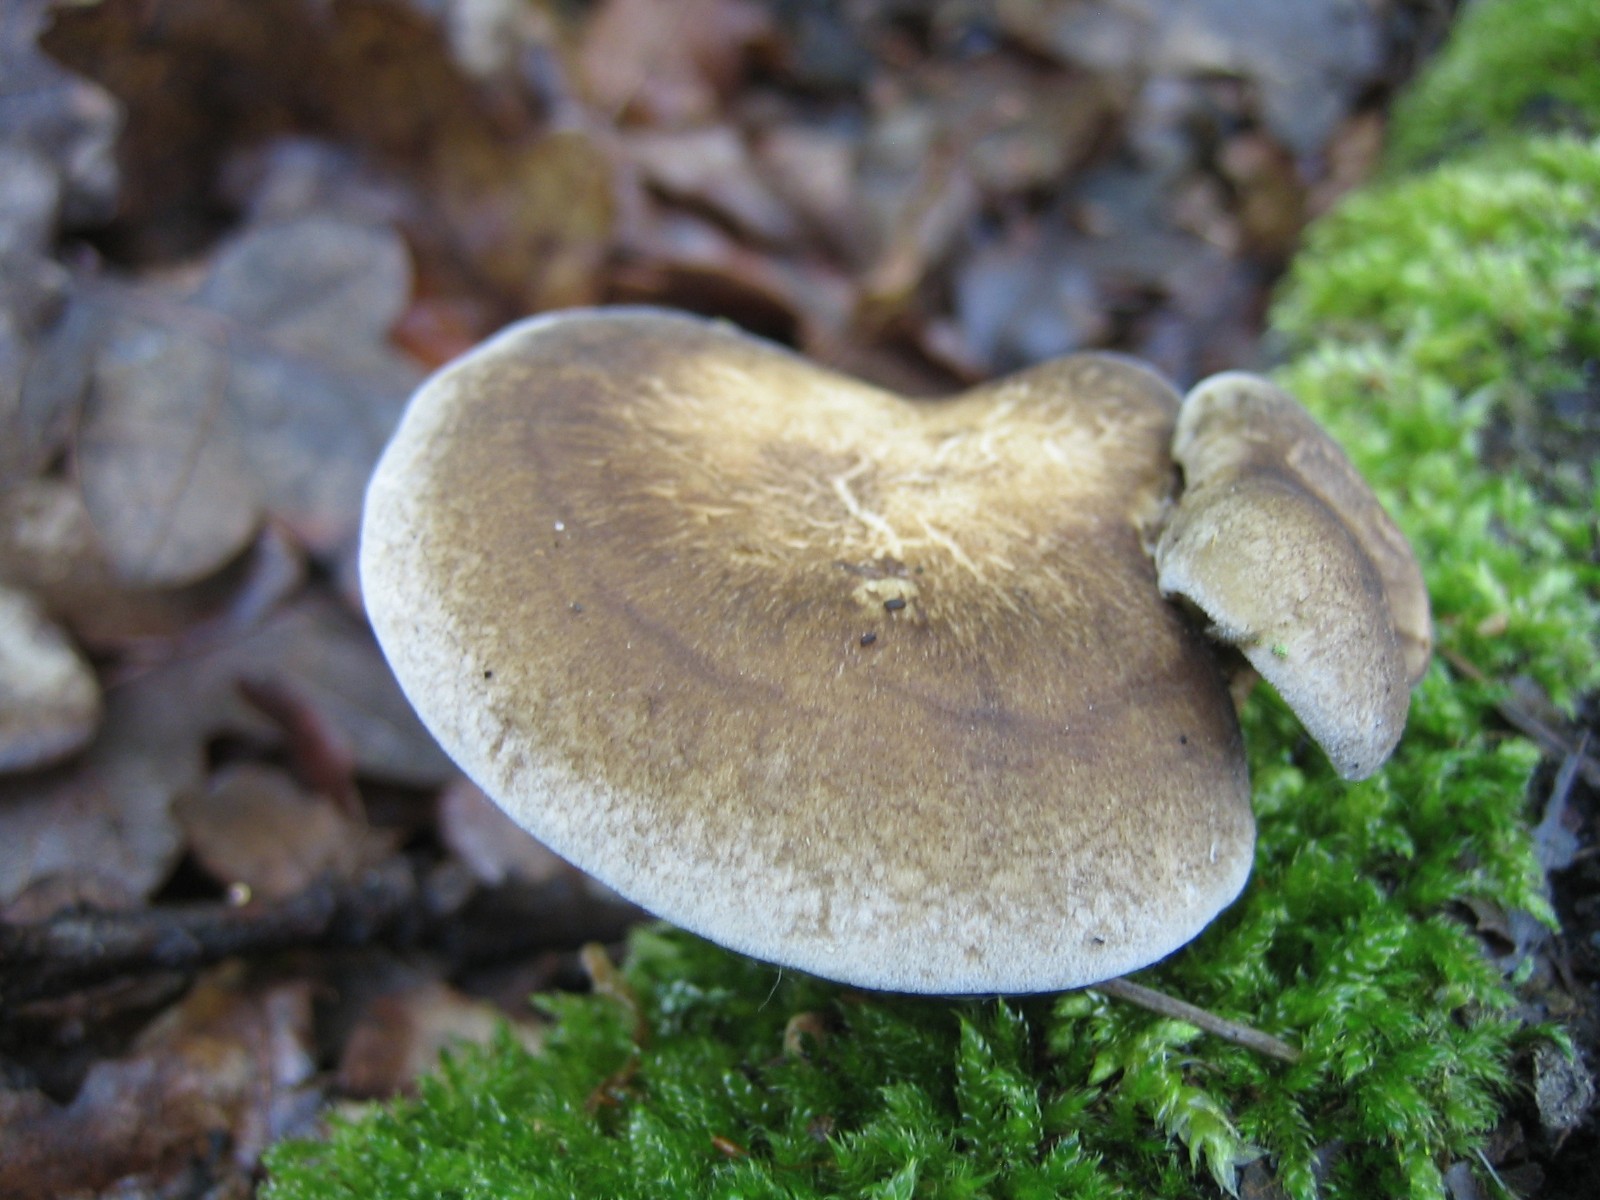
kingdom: Fungi
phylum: Basidiomycota
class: Agaricomycetes
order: Polyporales
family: Polyporaceae
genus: Lentinus
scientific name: Lentinus substrictus
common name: forårs-stilkporesvamp
